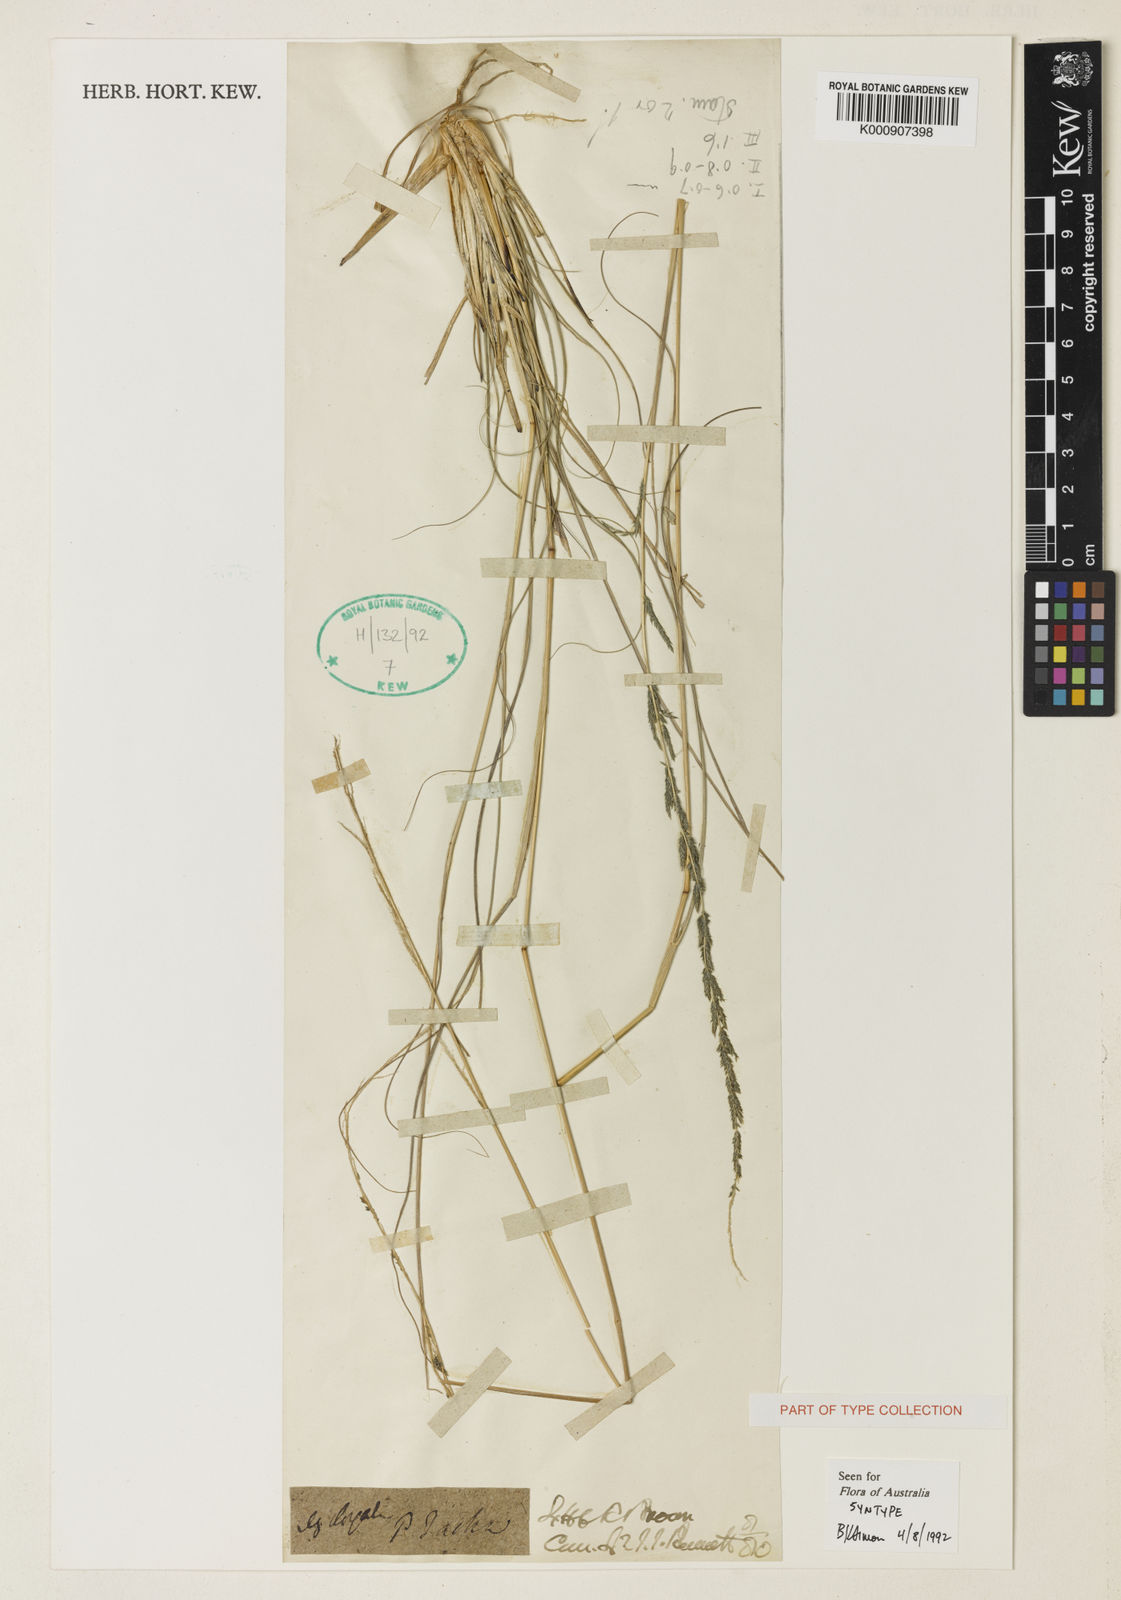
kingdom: Plantae
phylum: Tracheophyta
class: Liliopsida
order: Poales
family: Poaceae
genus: Sporobolus
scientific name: Sporobolus elongatus
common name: Rat tail grass
